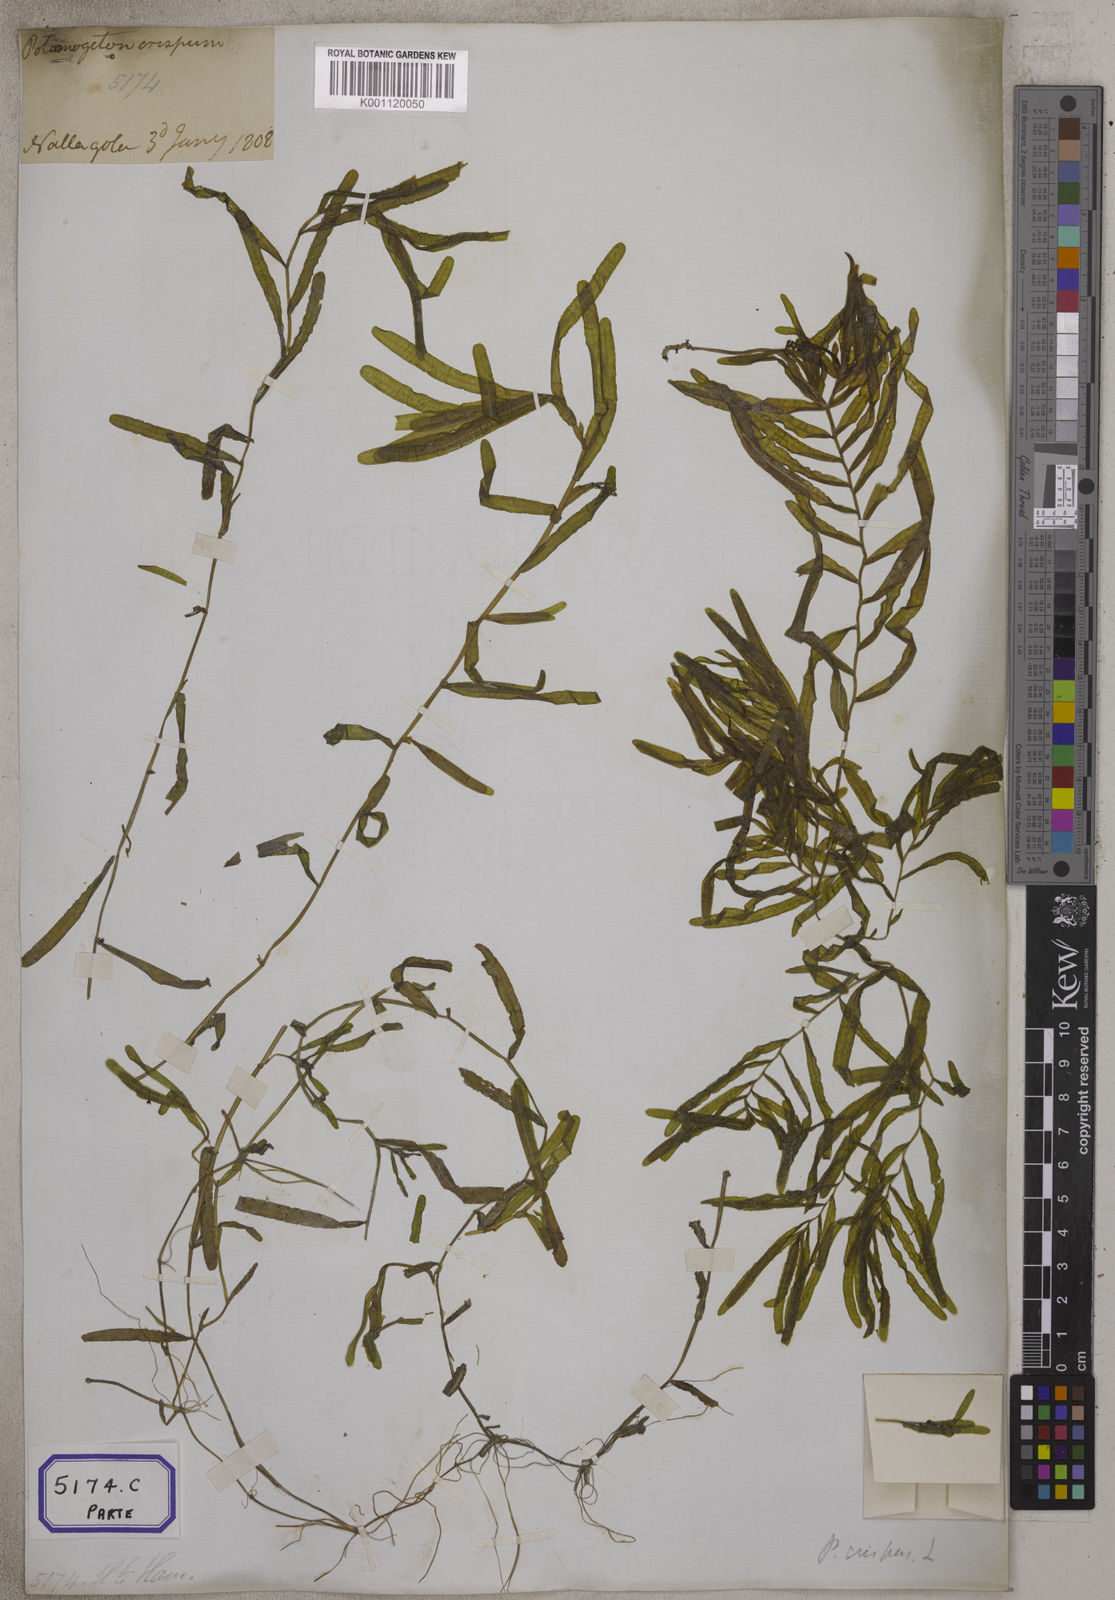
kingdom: Plantae
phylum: Tracheophyta
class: Liliopsida
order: Alismatales
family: Potamogetonaceae
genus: Potamogeton
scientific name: Potamogeton crispus
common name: Curled pondweed
